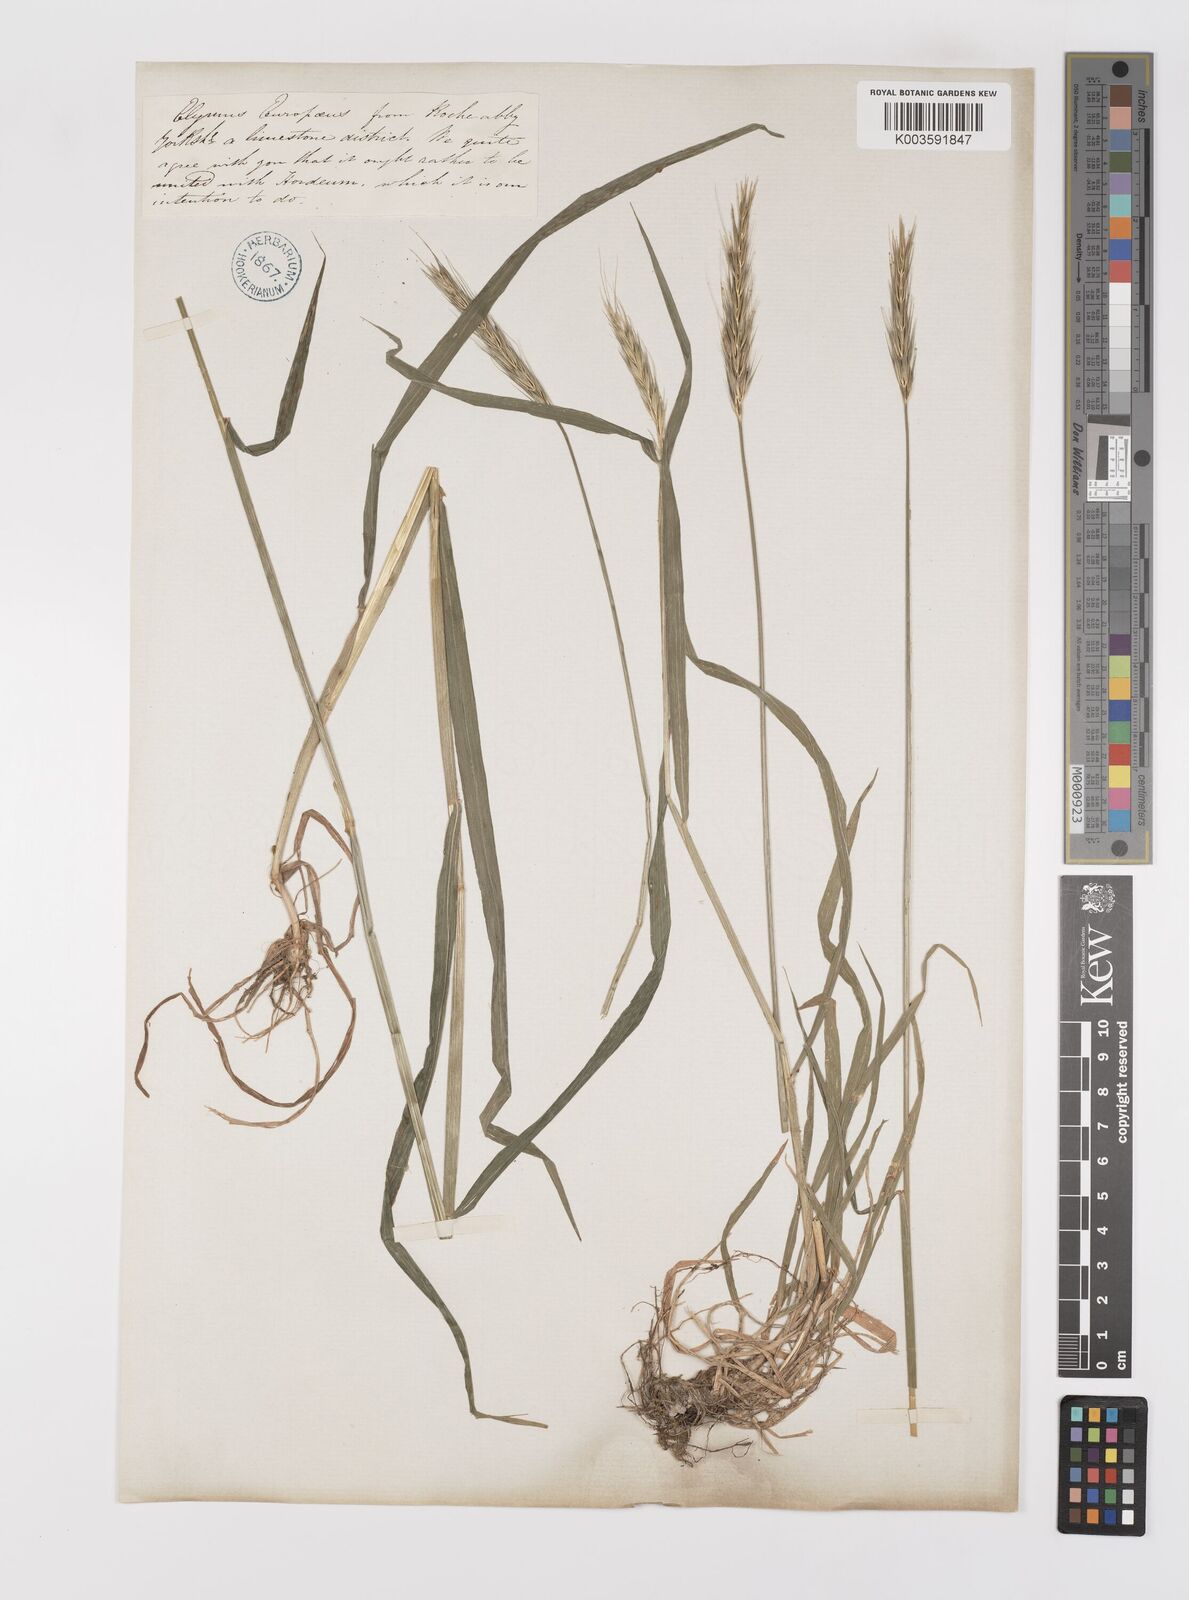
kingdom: Plantae
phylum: Tracheophyta
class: Liliopsida
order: Poales
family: Poaceae
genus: Hordelymus
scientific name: Hordelymus europaeus
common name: Wood-barley
